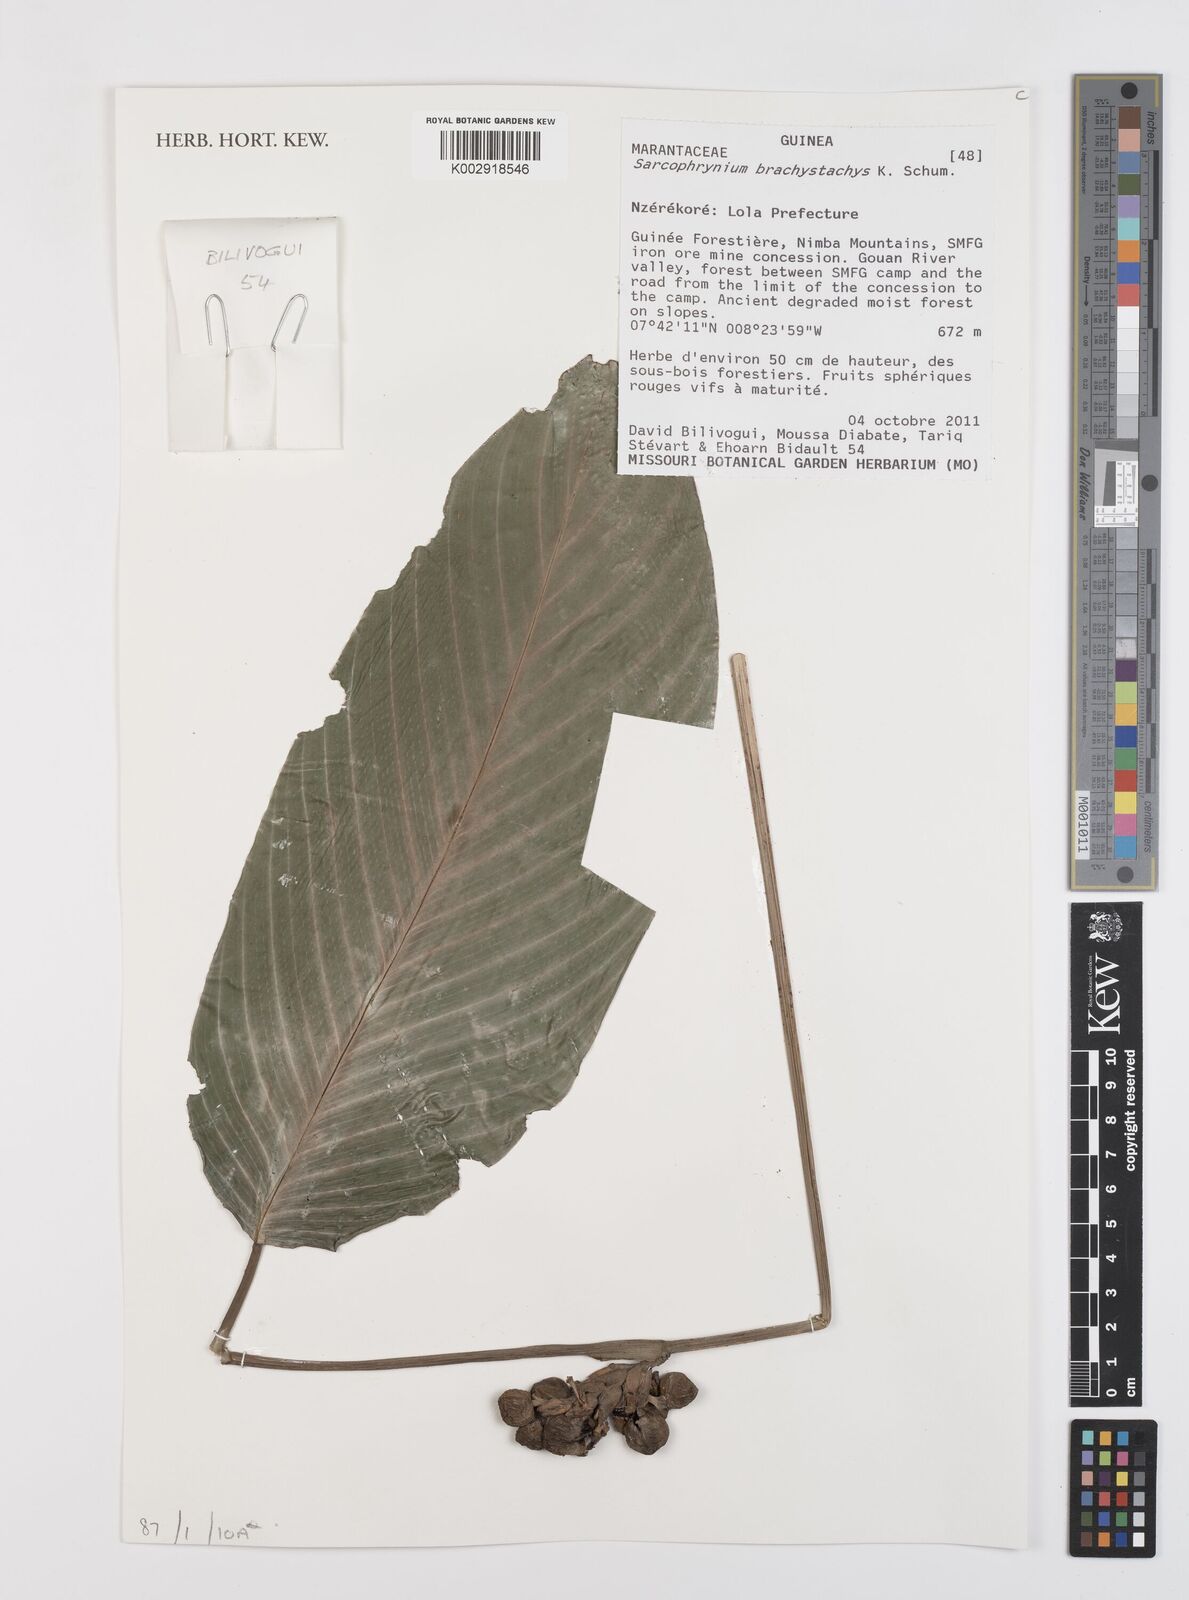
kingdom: Plantae
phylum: Tracheophyta
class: Liliopsida
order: Zingiberales
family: Marantaceae
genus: Sarcophrynium
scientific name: Sarcophrynium brachystachyum
